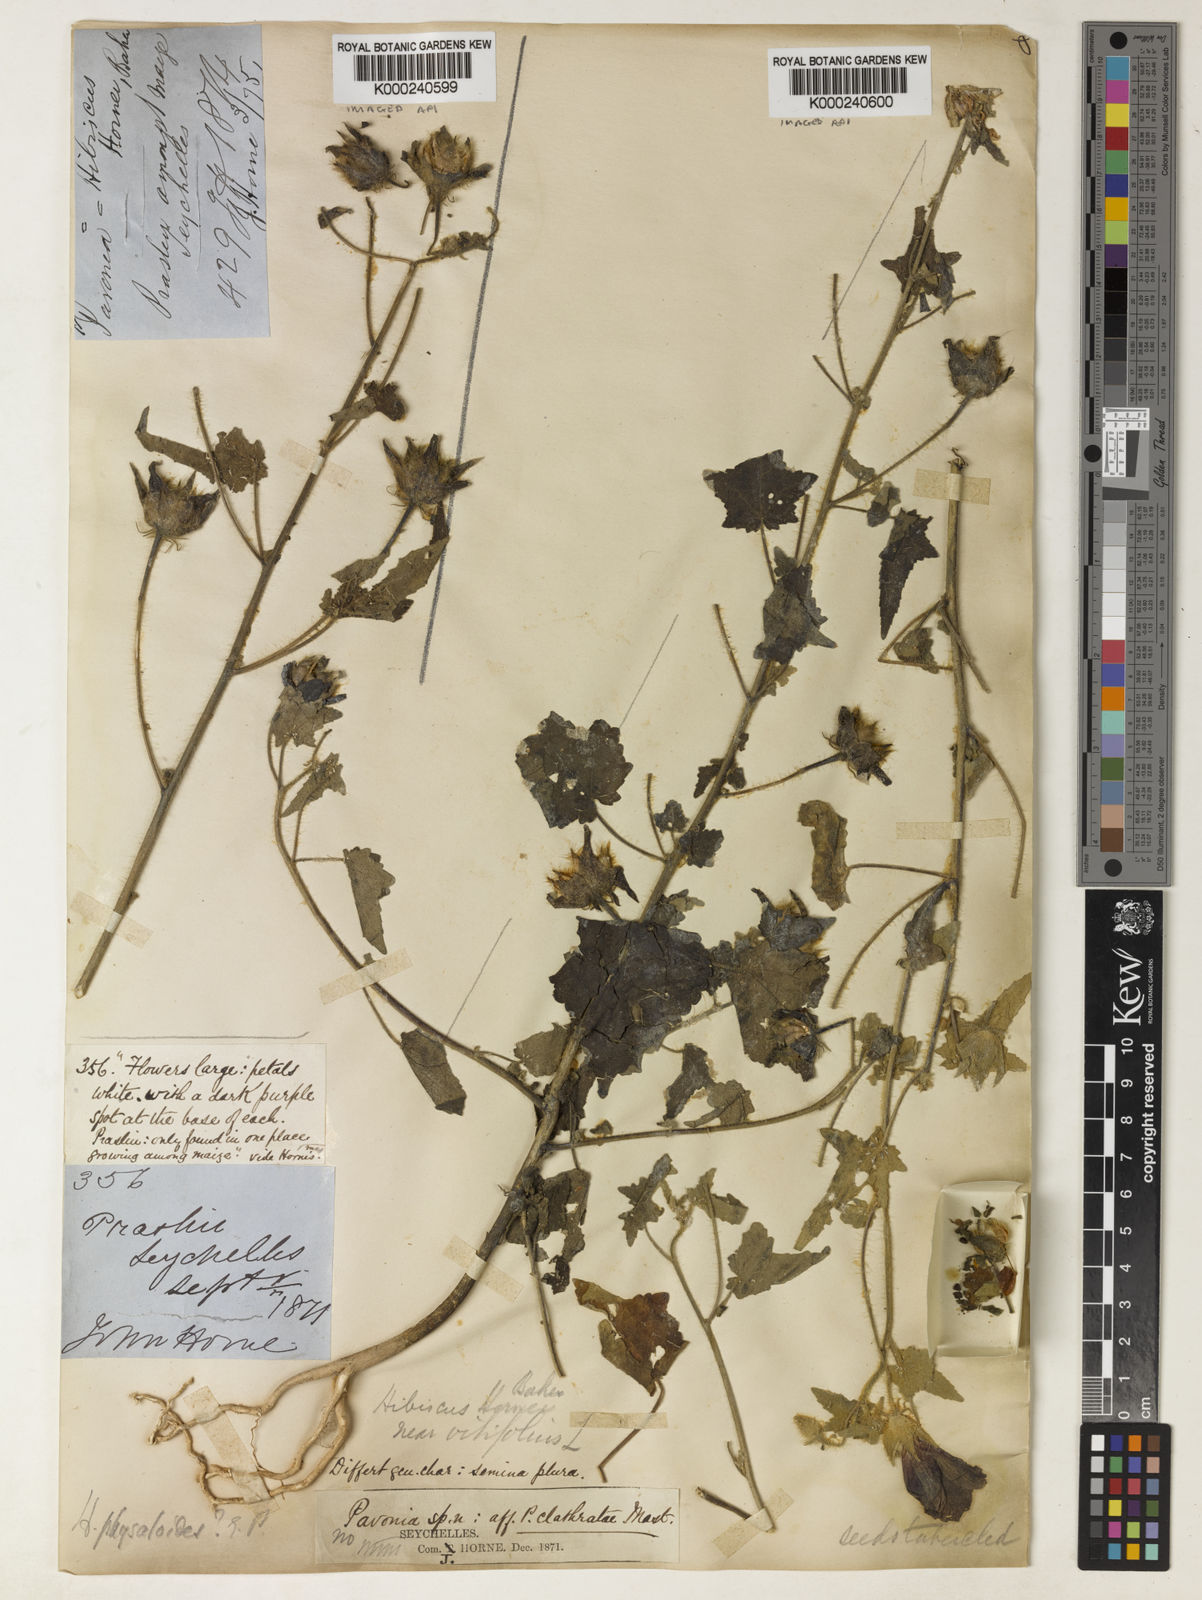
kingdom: Plantae
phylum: Tracheophyta
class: Magnoliopsida
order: Malvales
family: Malvaceae
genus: Hibiscus
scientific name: Hibiscus physaloides
